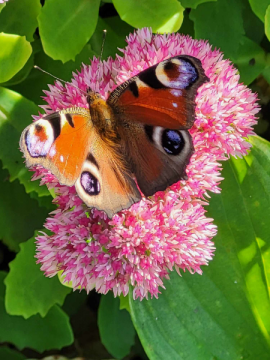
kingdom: Animalia
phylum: Arthropoda
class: Insecta
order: Lepidoptera
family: Nymphalidae
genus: Aglais
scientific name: Aglais io
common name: European Peacock
